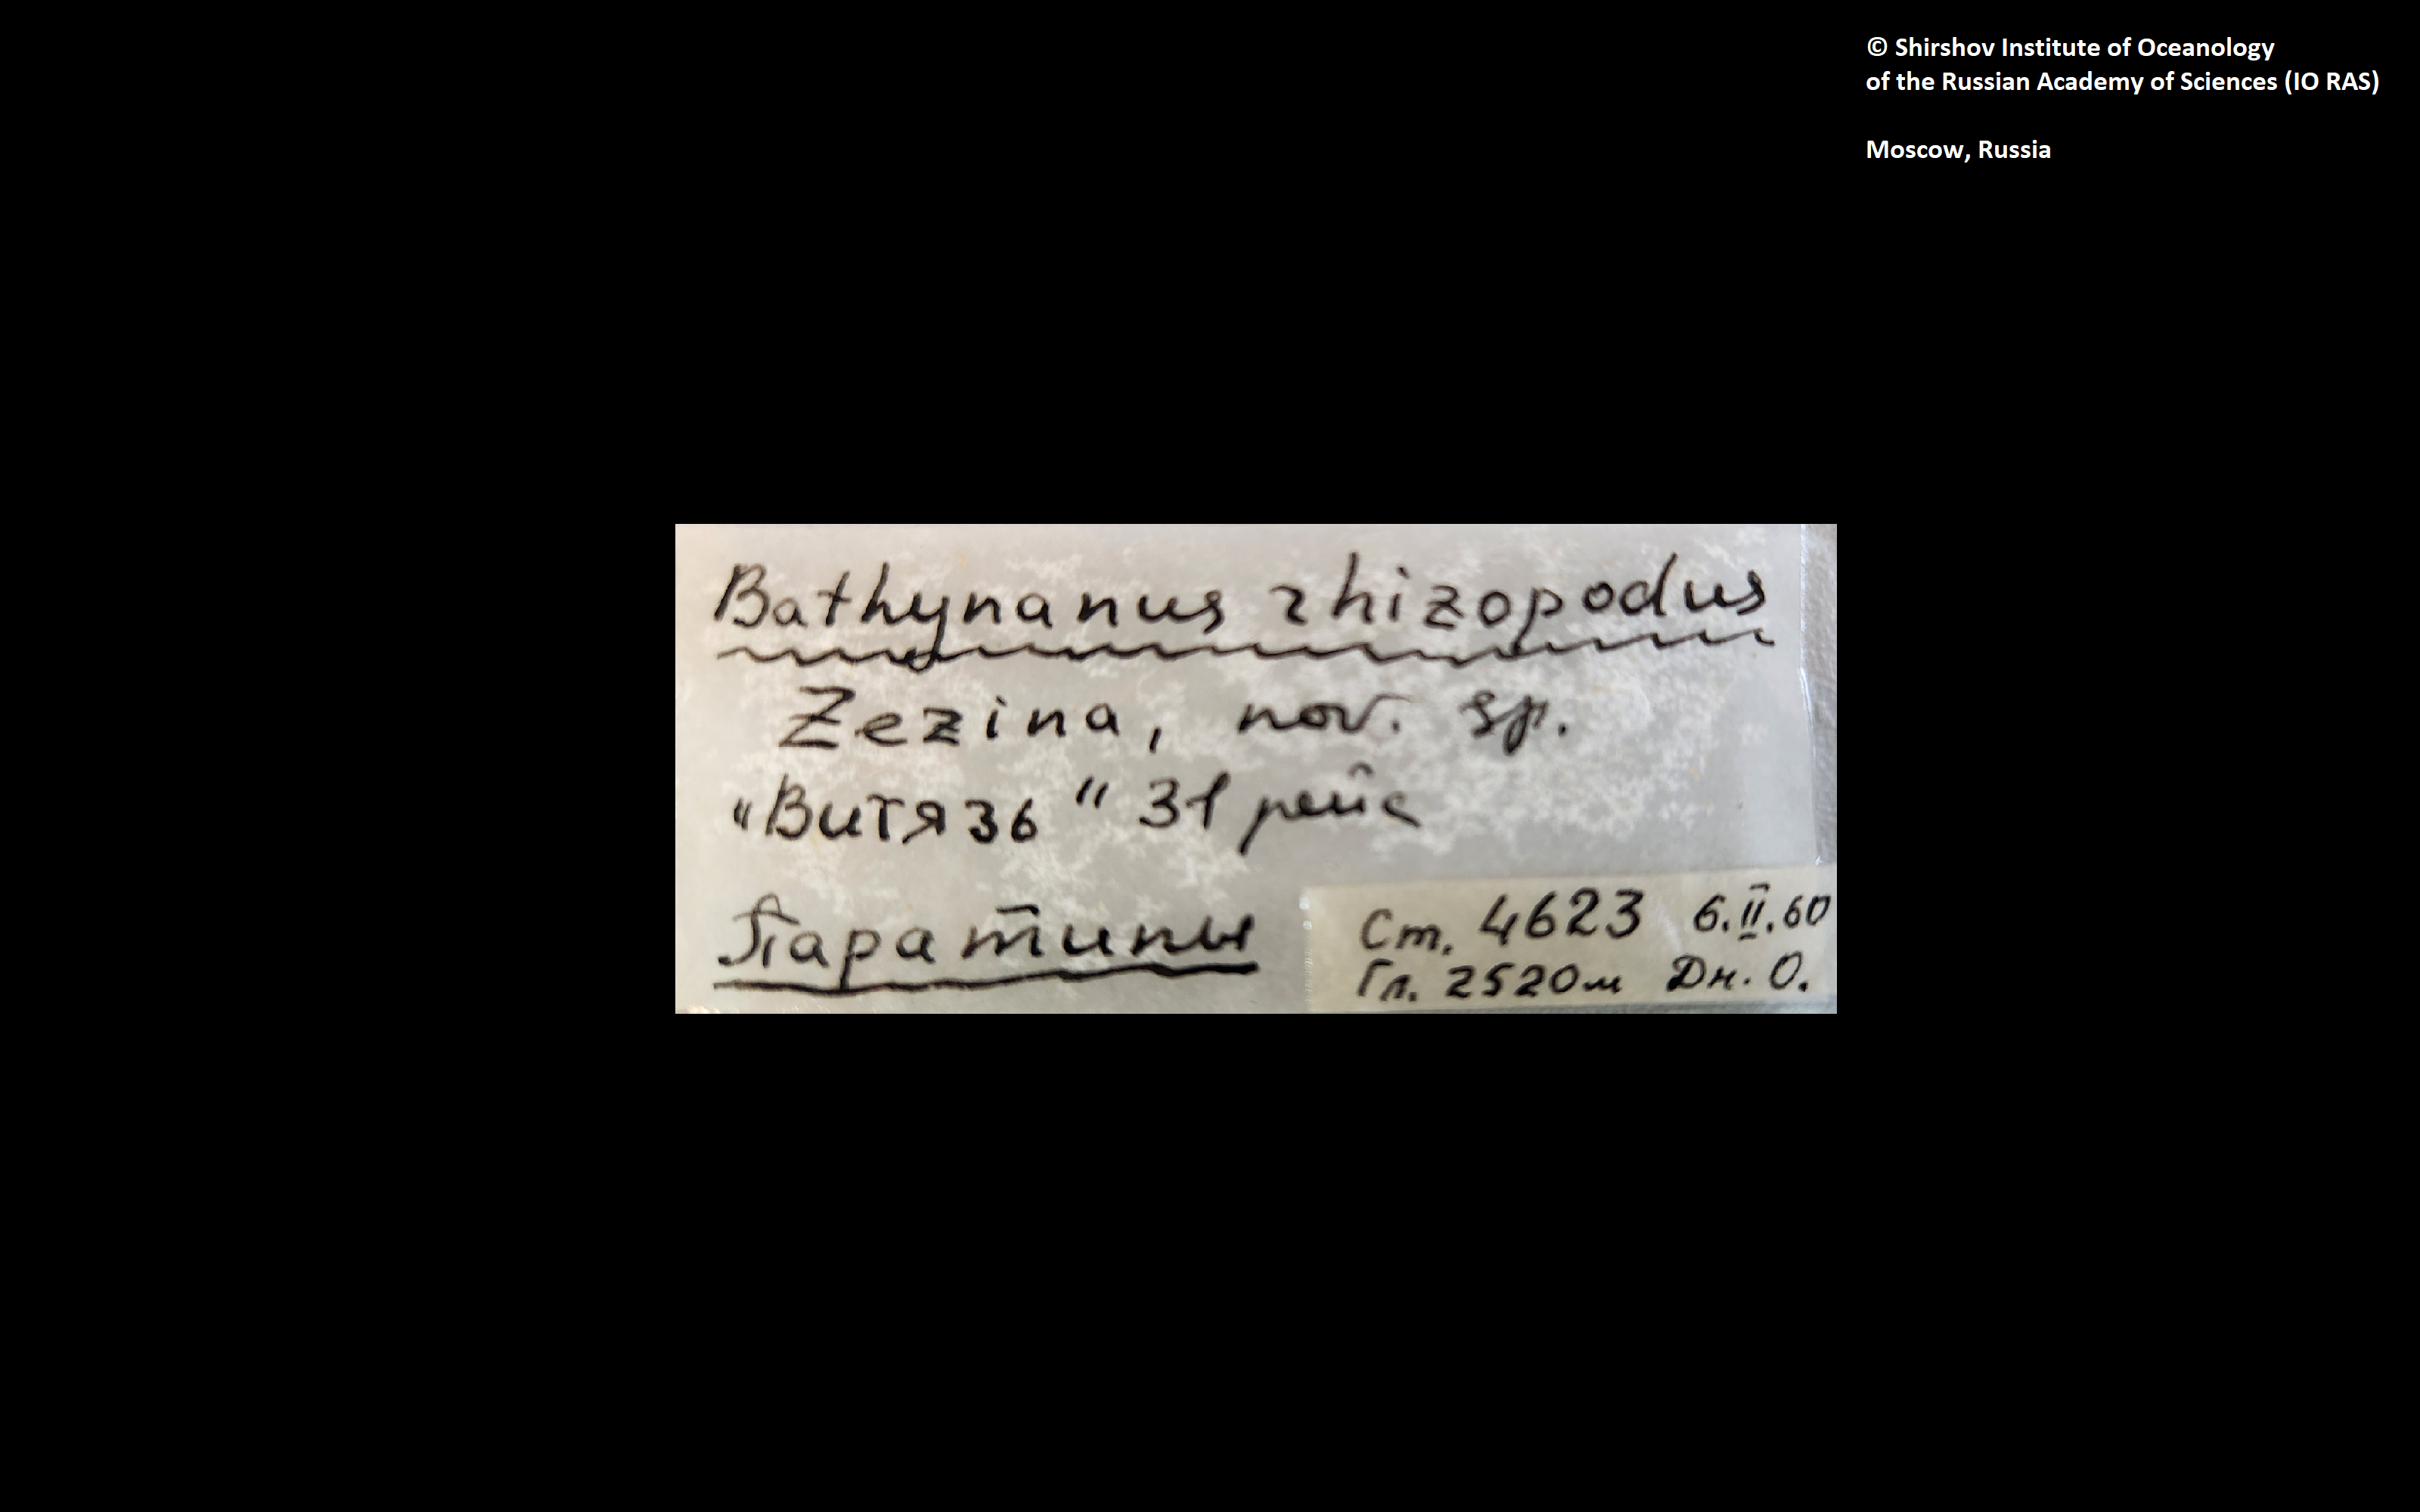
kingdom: Animalia
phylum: Brachiopoda
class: Rhynchonellata
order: Terebratulida
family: Chlidonophoridae
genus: Bathynanus
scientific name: Bathynanus rhizopodus
